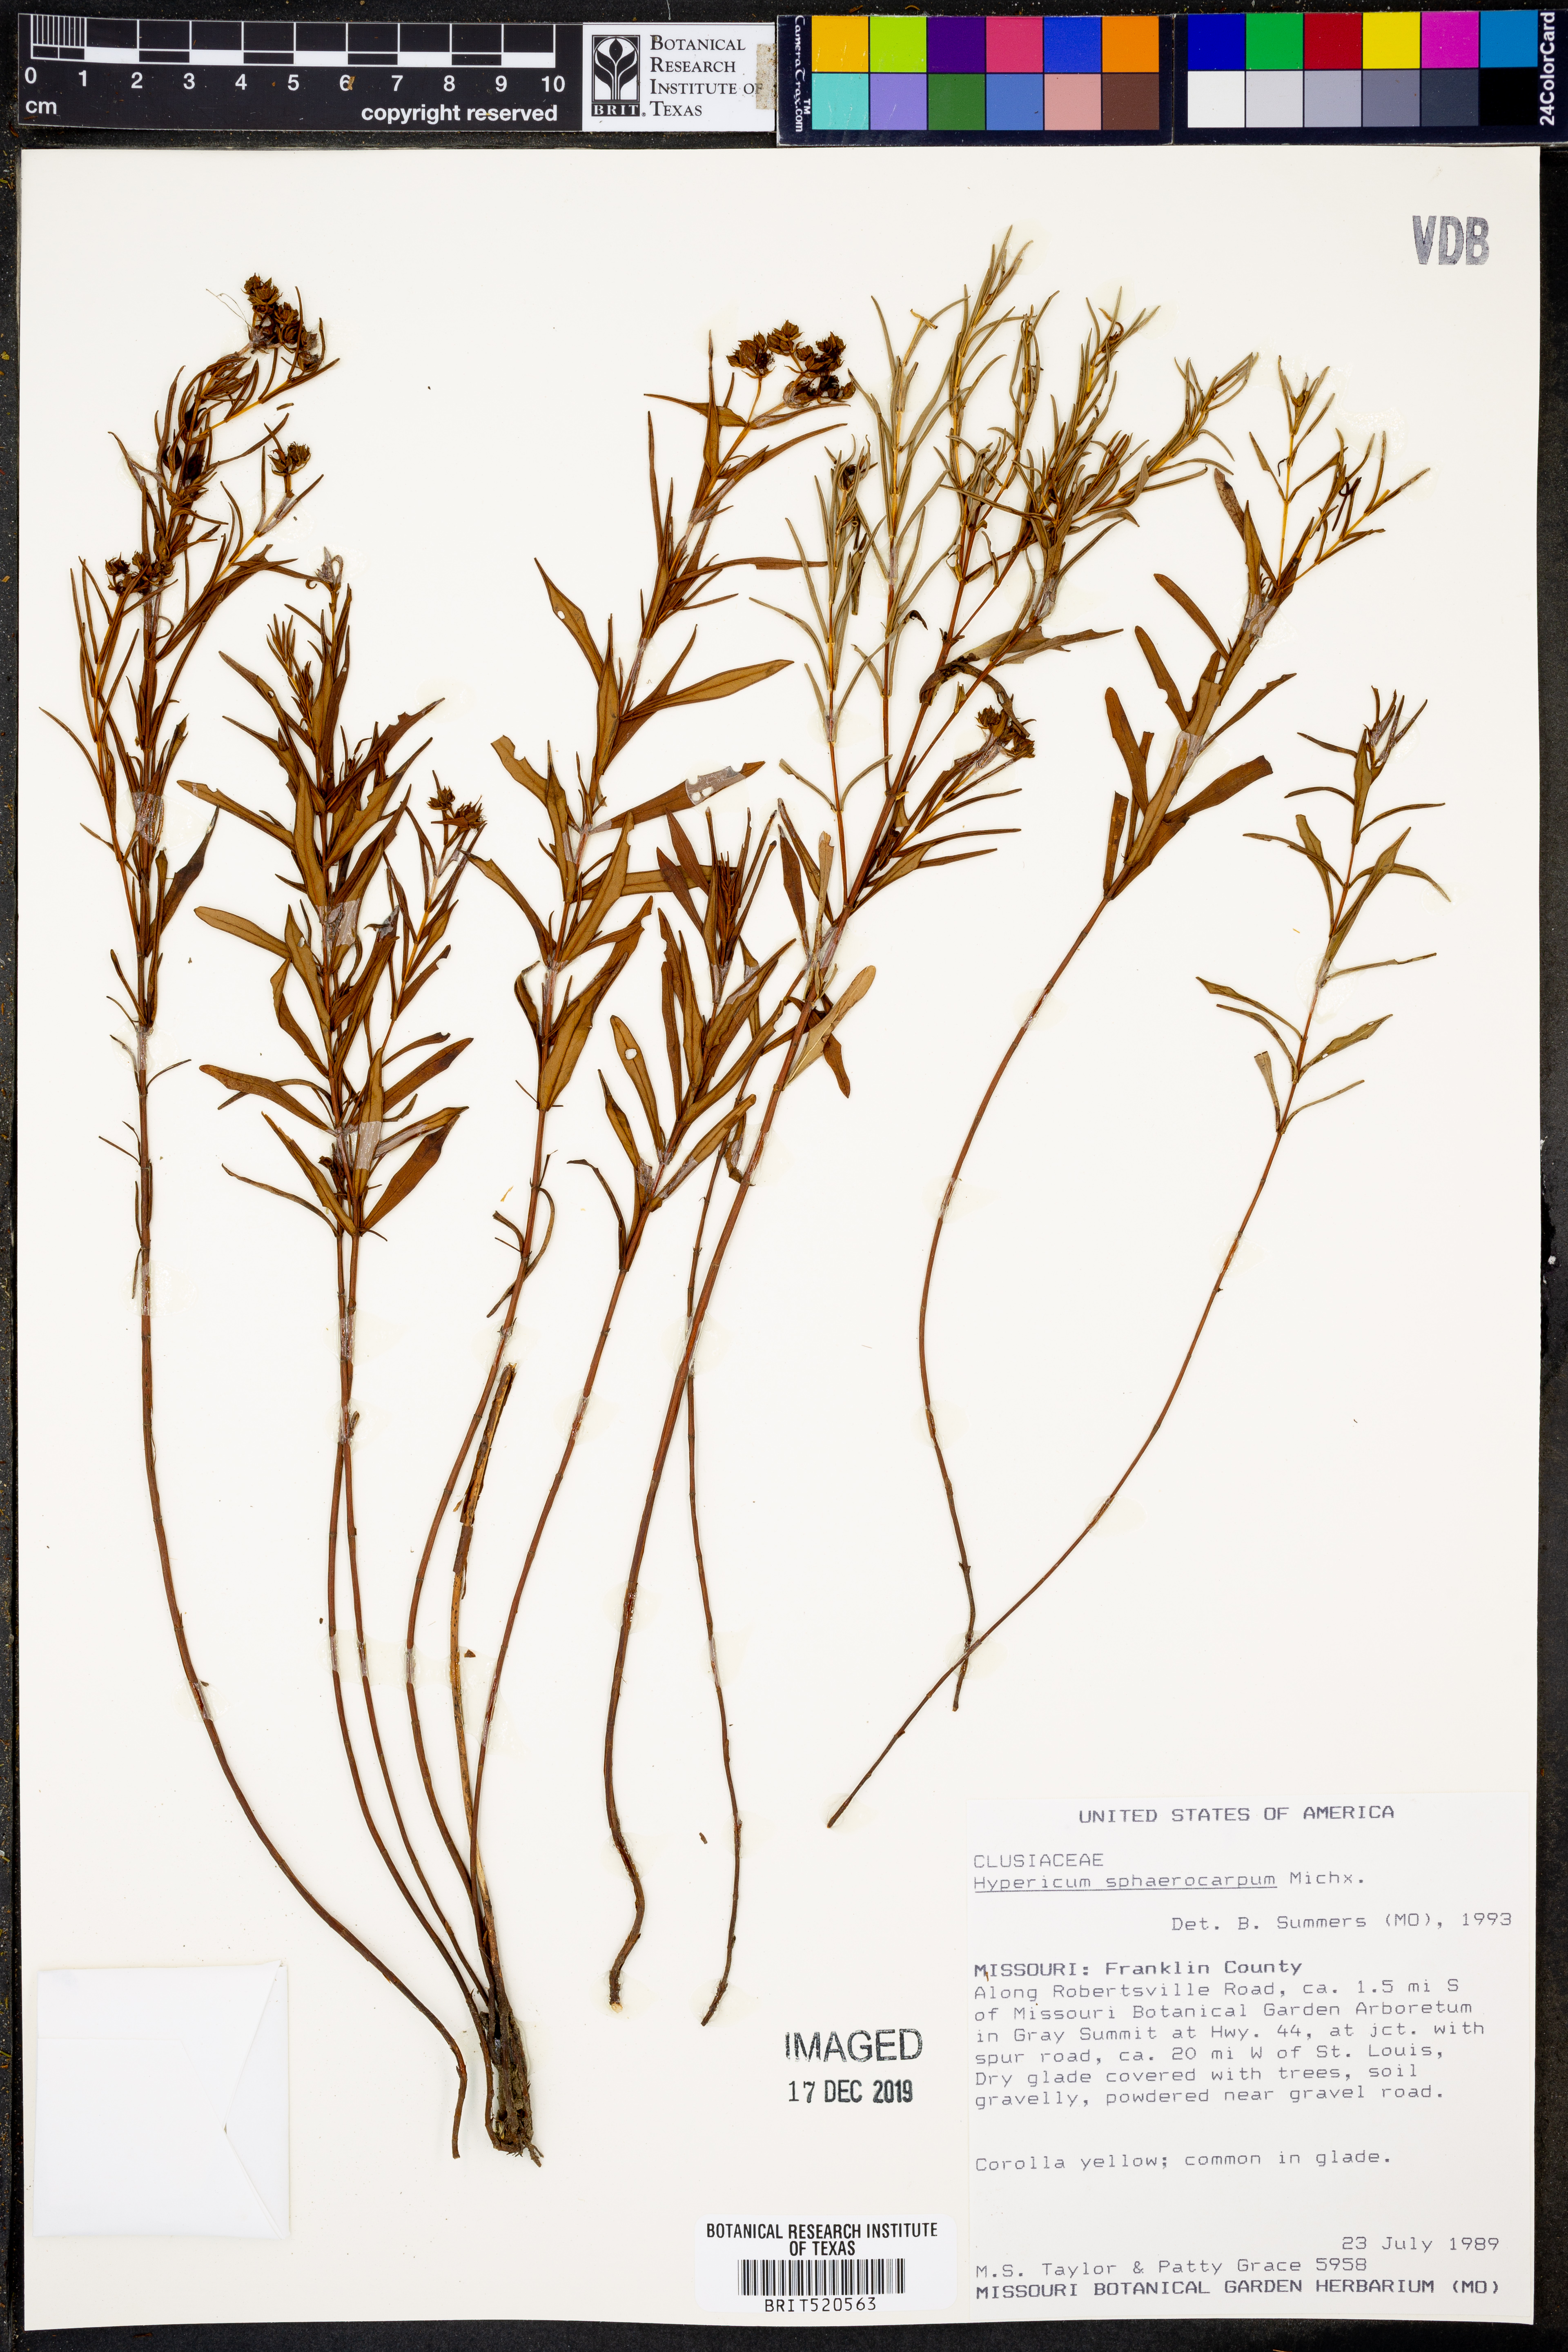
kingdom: Plantae
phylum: Tracheophyta
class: Magnoliopsida
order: Malpighiales
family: Hypericaceae
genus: Hypericum
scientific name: Hypericum sphaerocarpum
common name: Round-fruited st. john's-wort
